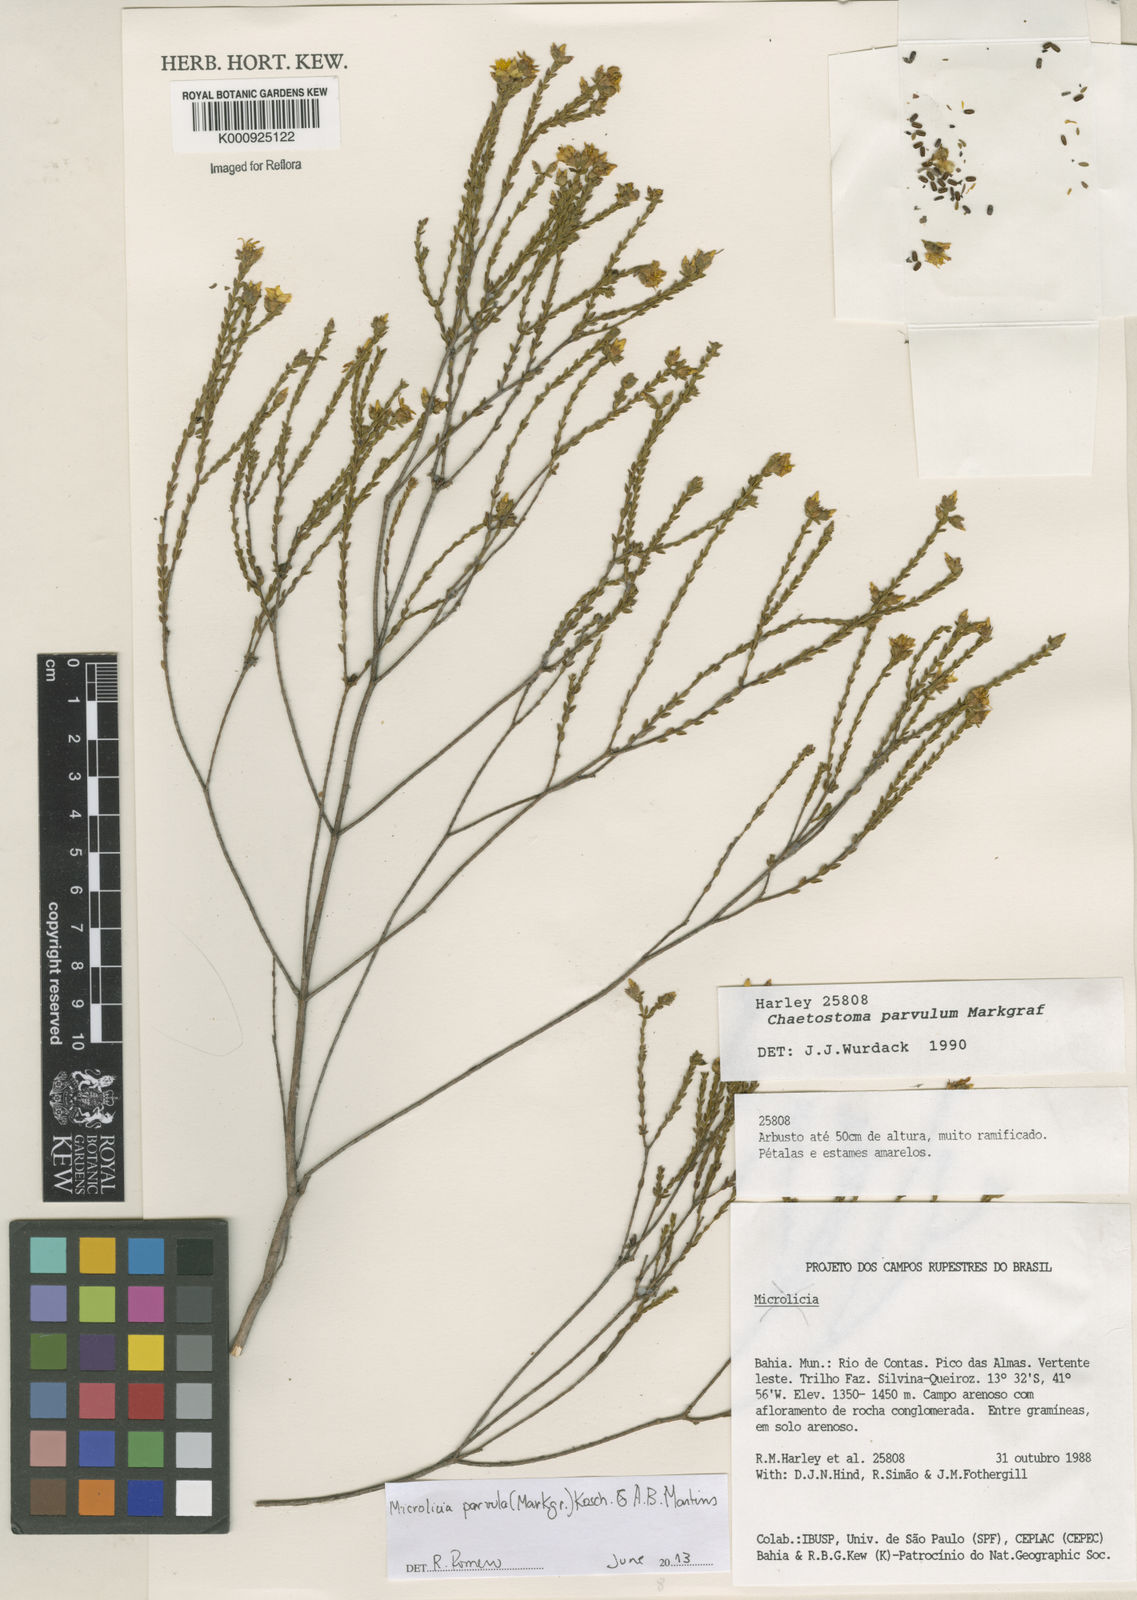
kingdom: Plantae
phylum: Tracheophyta
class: Magnoliopsida
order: Myrtales
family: Melastomataceae
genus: Microlicia
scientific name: Microlicia parvula
